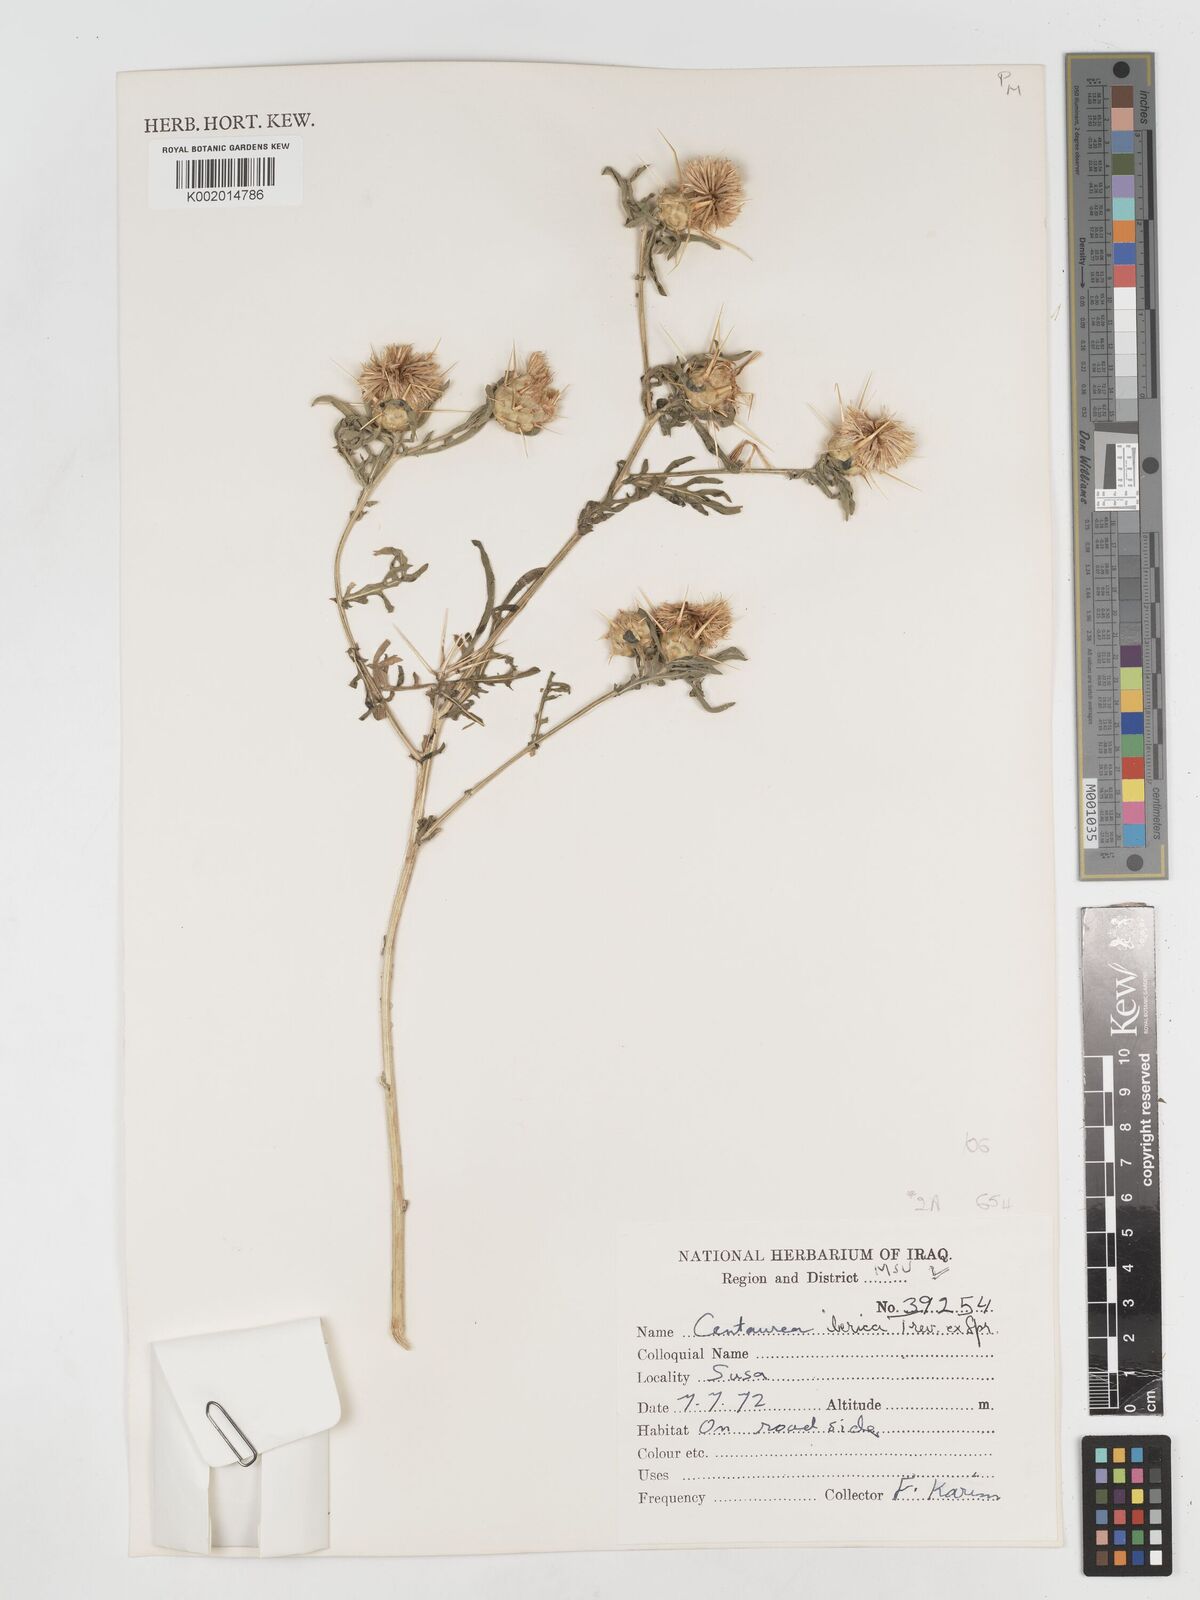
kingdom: Plantae
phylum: Tracheophyta
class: Magnoliopsida
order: Asterales
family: Asteraceae
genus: Centaurea
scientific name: Centaurea iberica
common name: Iberian knapweed
